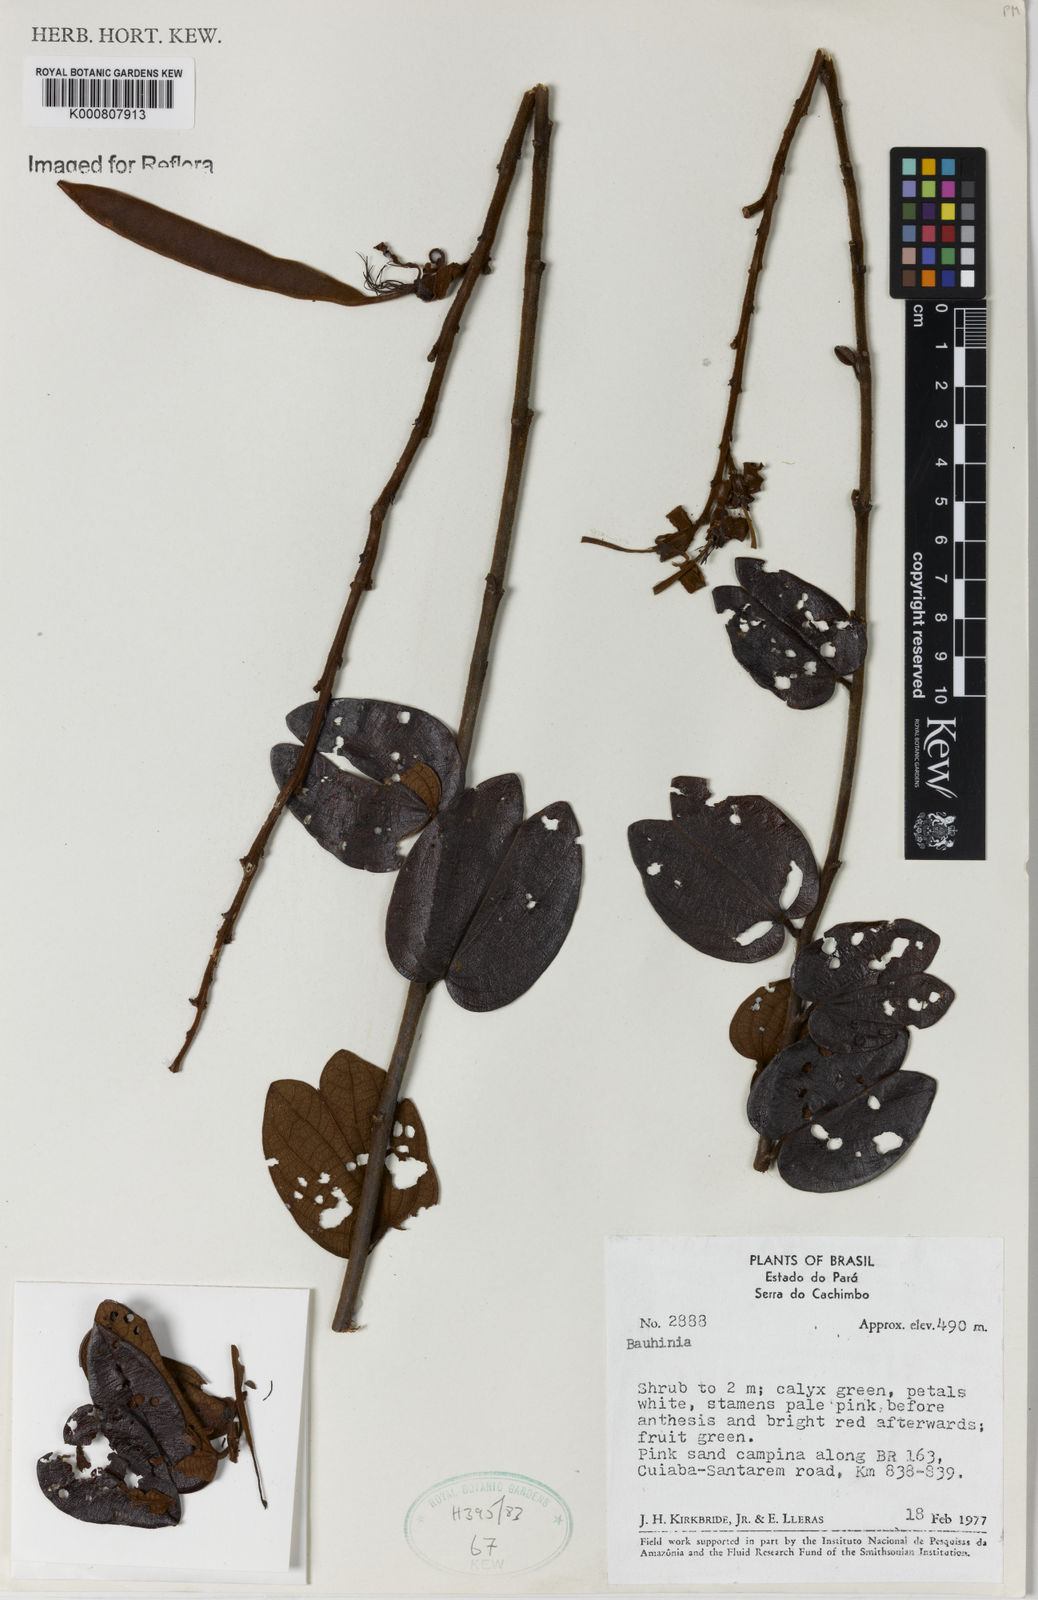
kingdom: Plantae
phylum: Tracheophyta
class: Magnoliopsida
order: Fabales
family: Fabaceae
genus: Bauhinia
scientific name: Bauhinia
